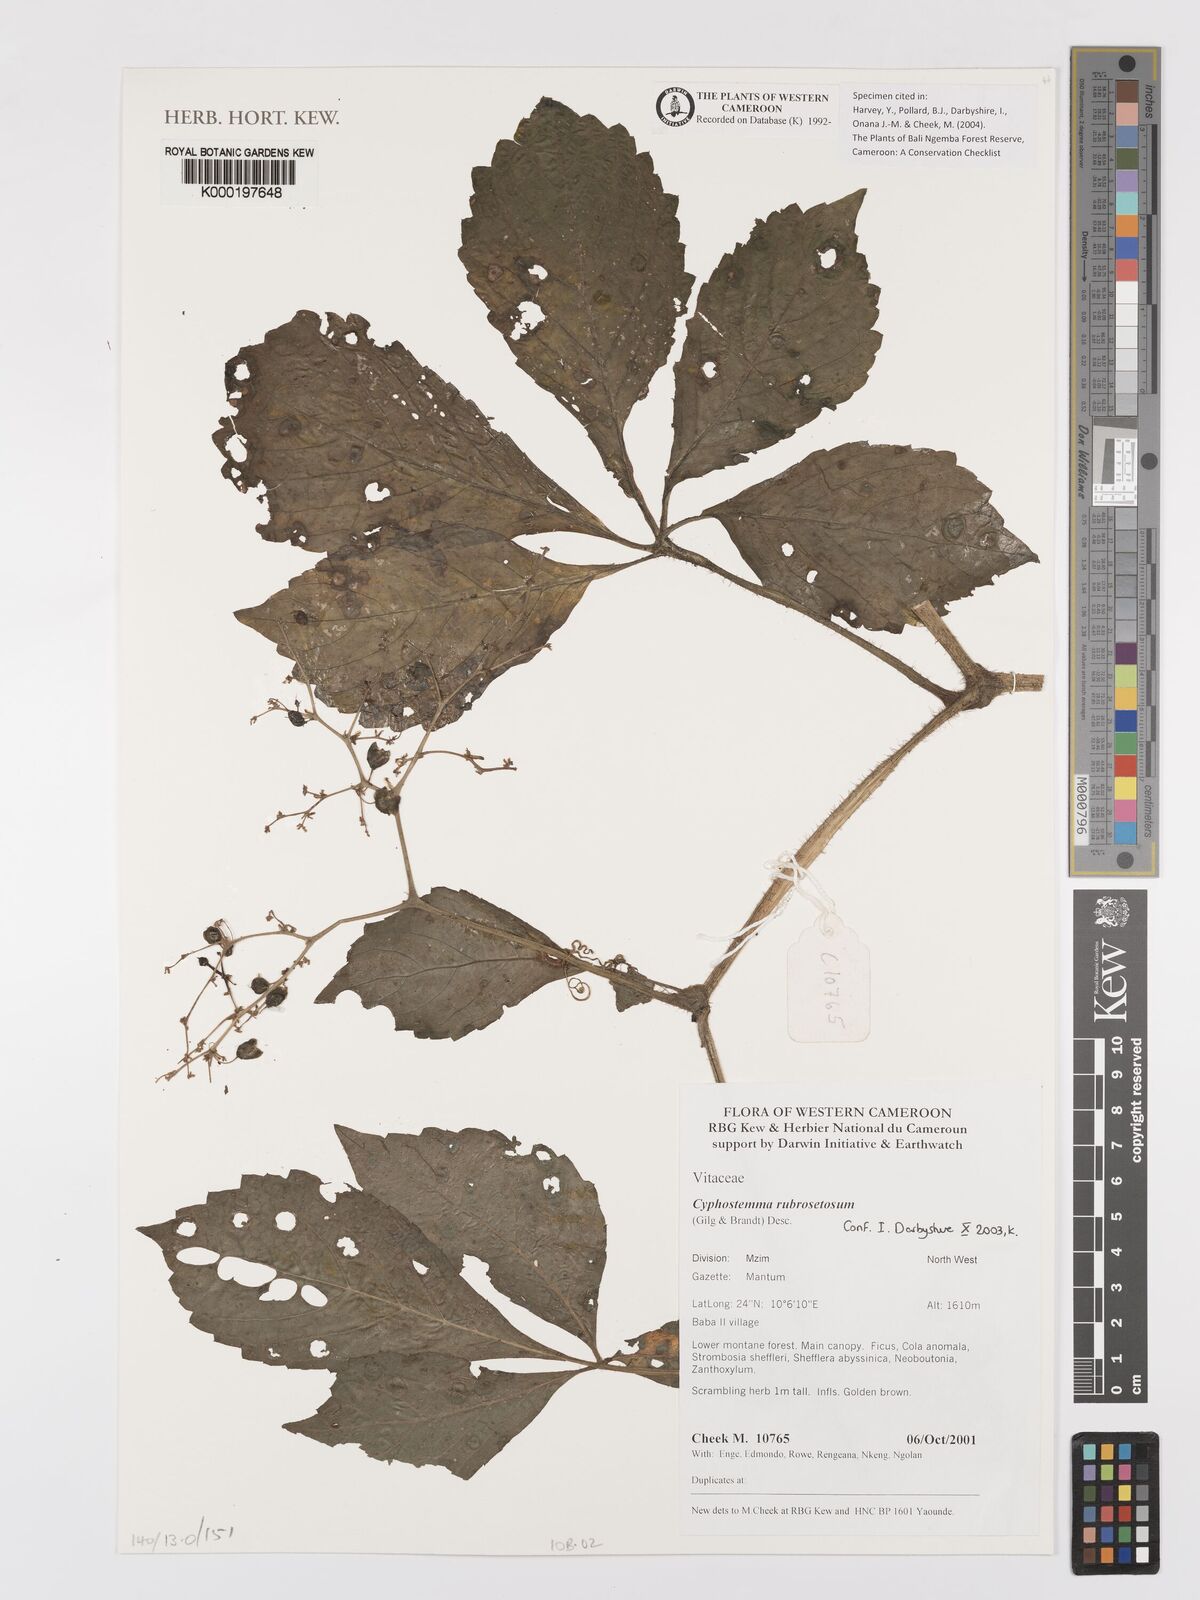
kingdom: Plantae
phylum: Tracheophyta
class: Magnoliopsida
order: Vitales
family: Vitaceae
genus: Cyphostemma
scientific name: Cyphostemma rubrosetosum
